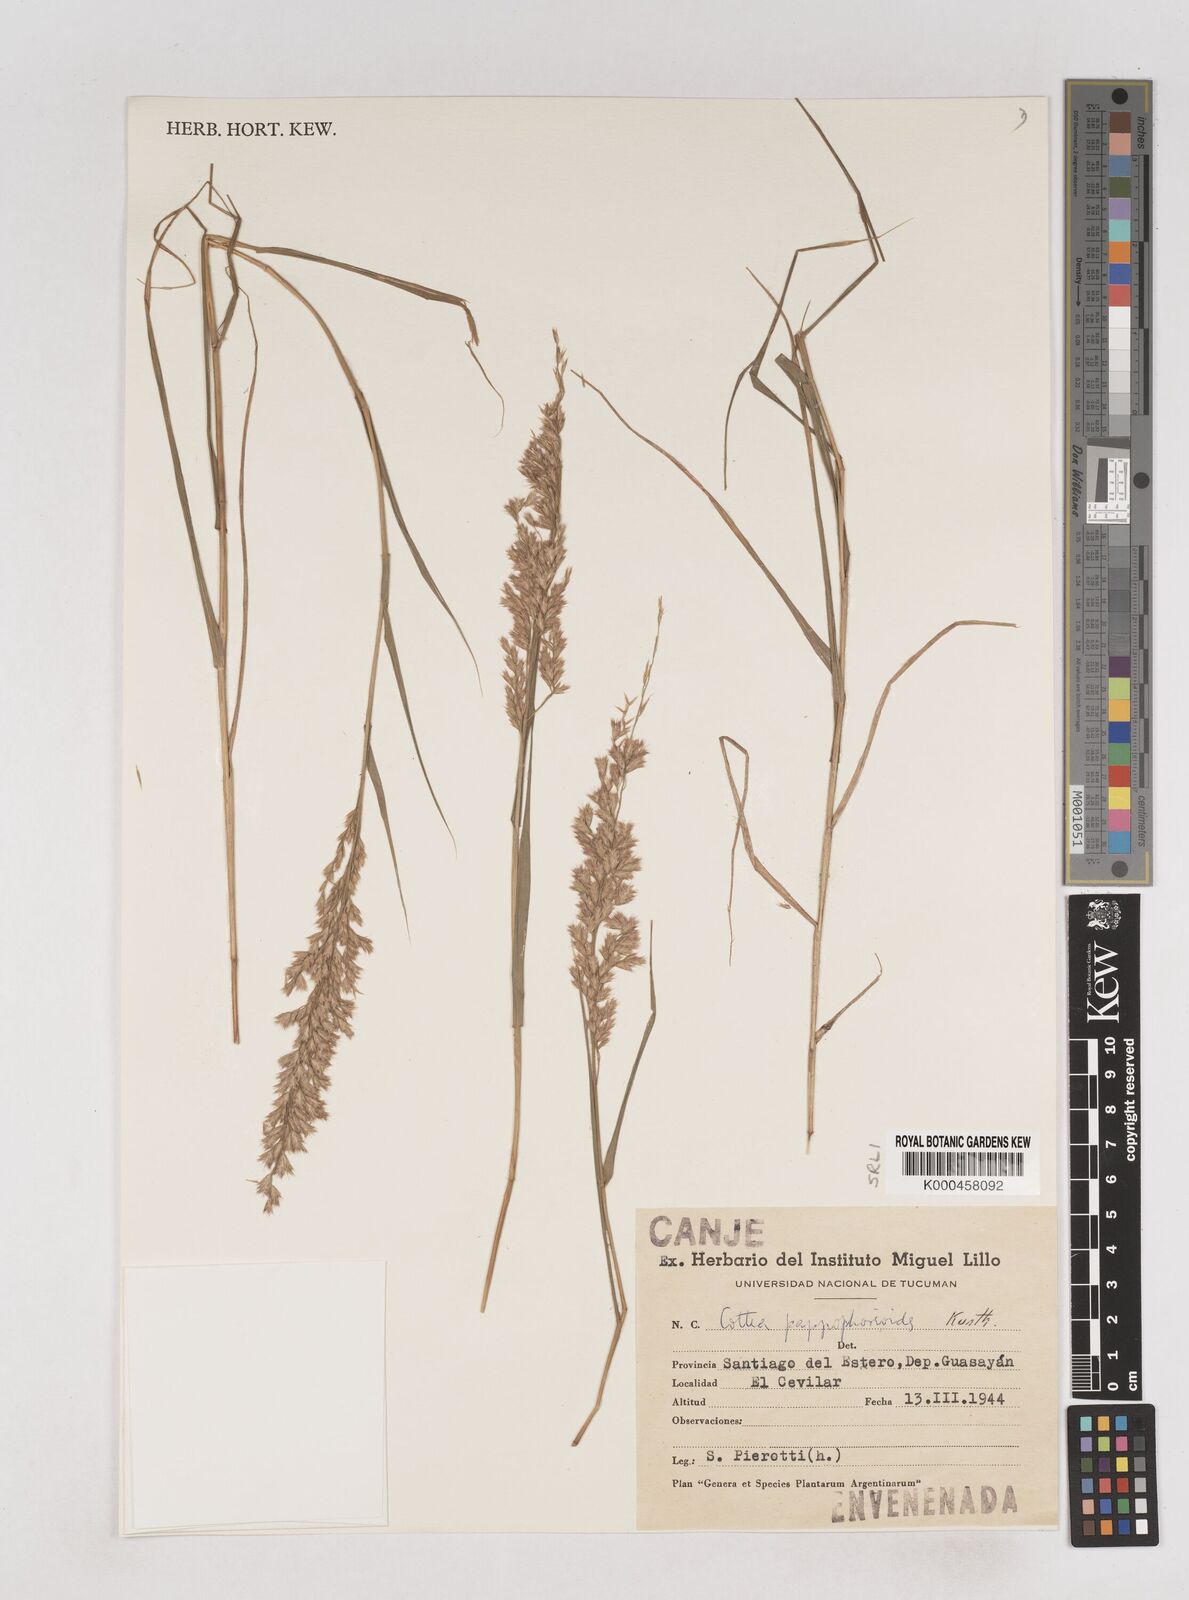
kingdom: Plantae
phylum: Tracheophyta
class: Liliopsida
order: Poales
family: Poaceae
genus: Cottea
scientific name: Cottea
